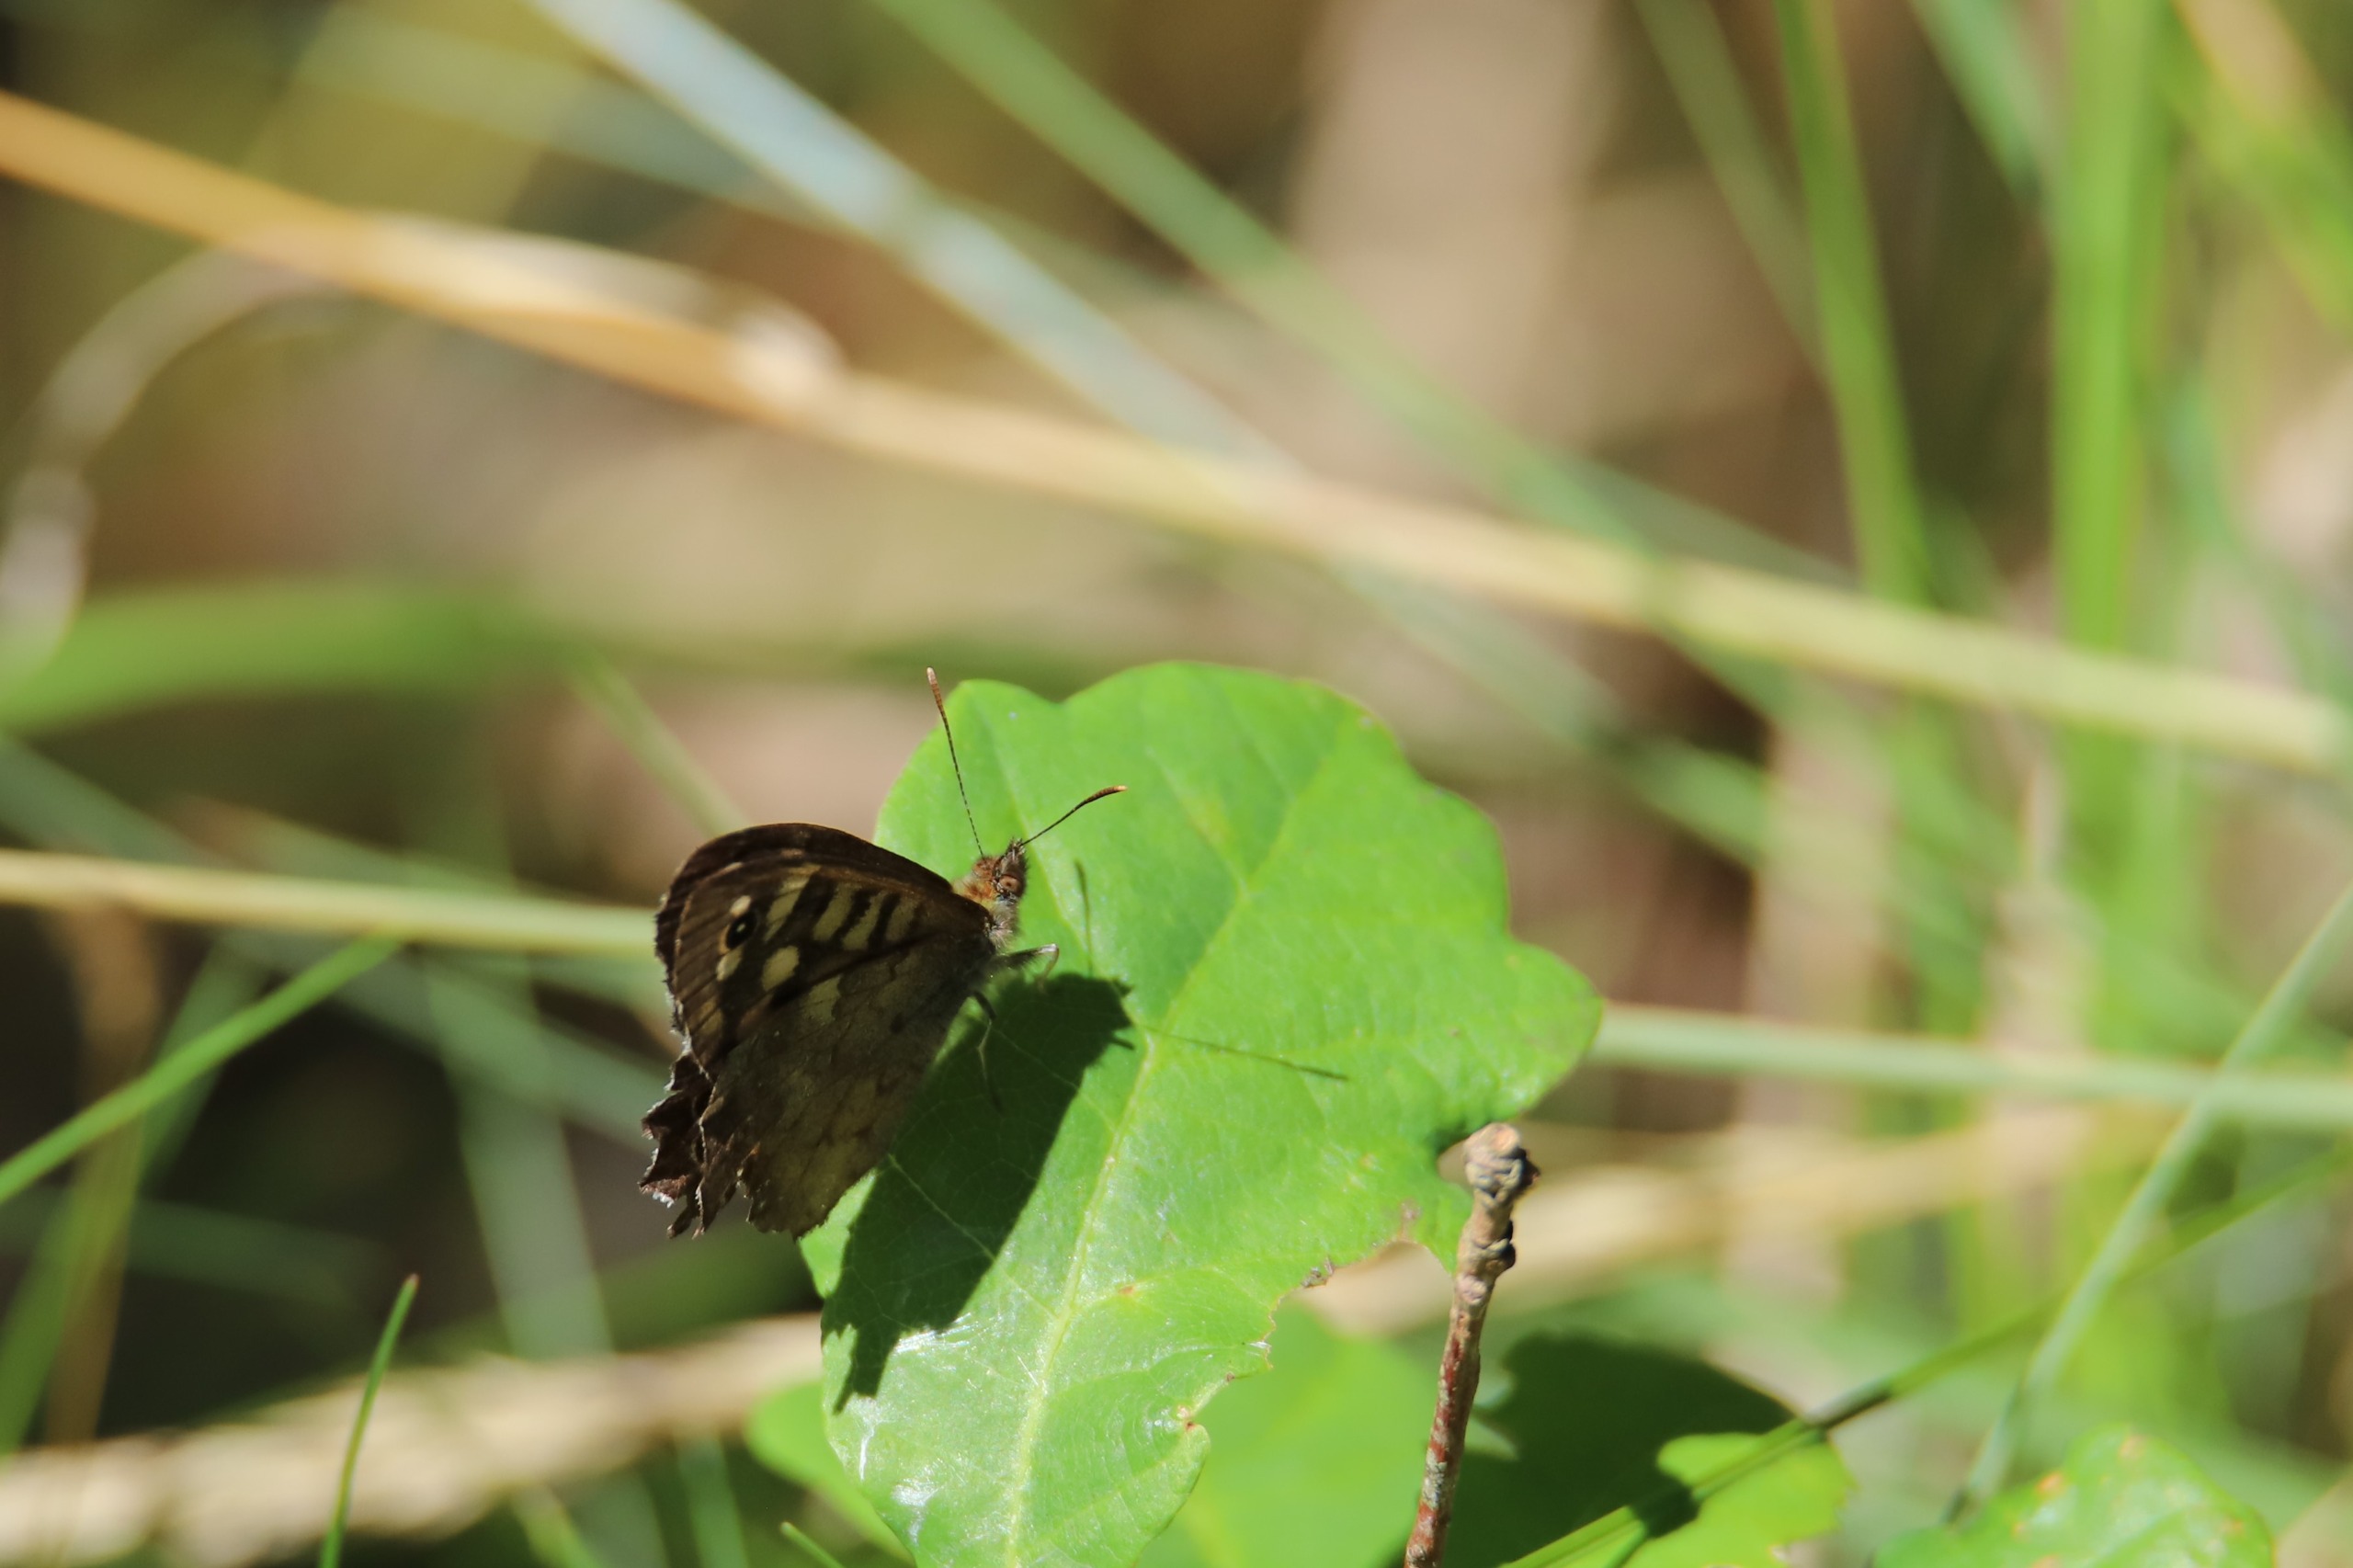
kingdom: Animalia
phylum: Arthropoda
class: Insecta
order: Lepidoptera
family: Nymphalidae
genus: Pararge
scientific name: Pararge aegeria
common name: Skovrandøje
